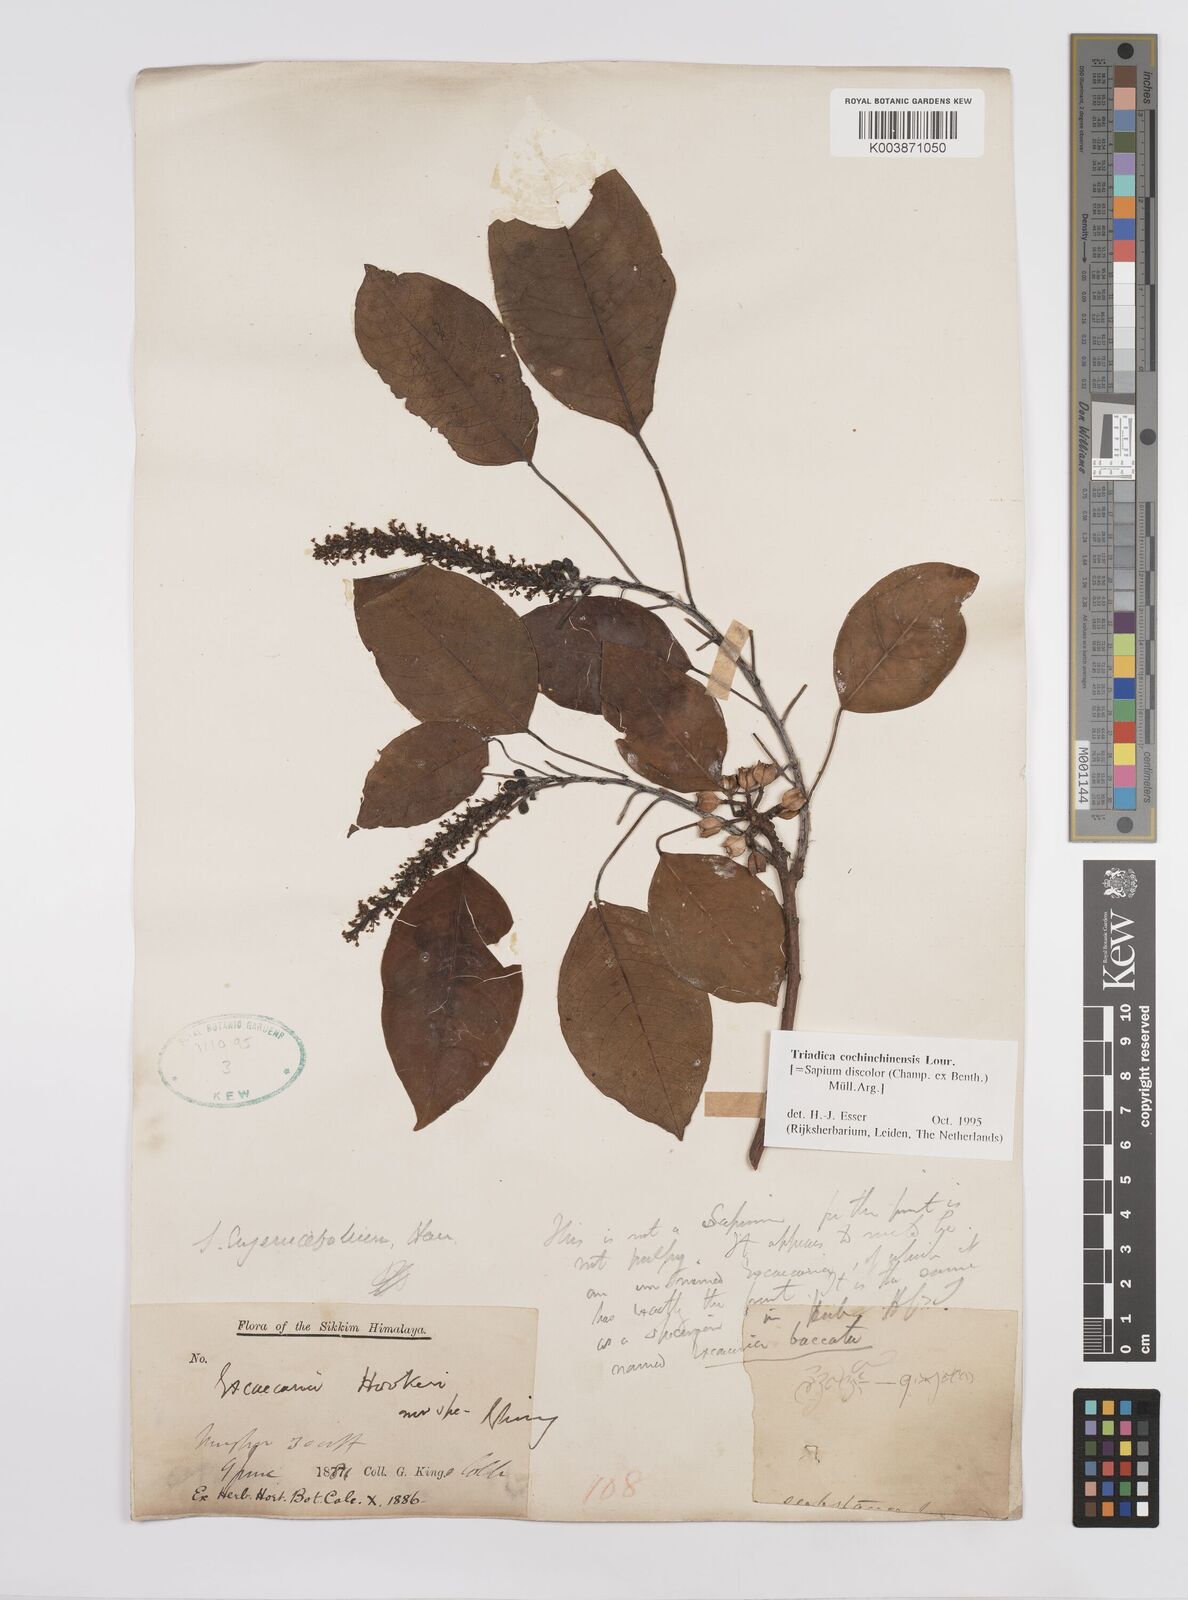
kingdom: Plantae
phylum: Tracheophyta
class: Magnoliopsida
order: Malpighiales
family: Euphorbiaceae
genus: Triadica
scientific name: Triadica cochinchinensis
